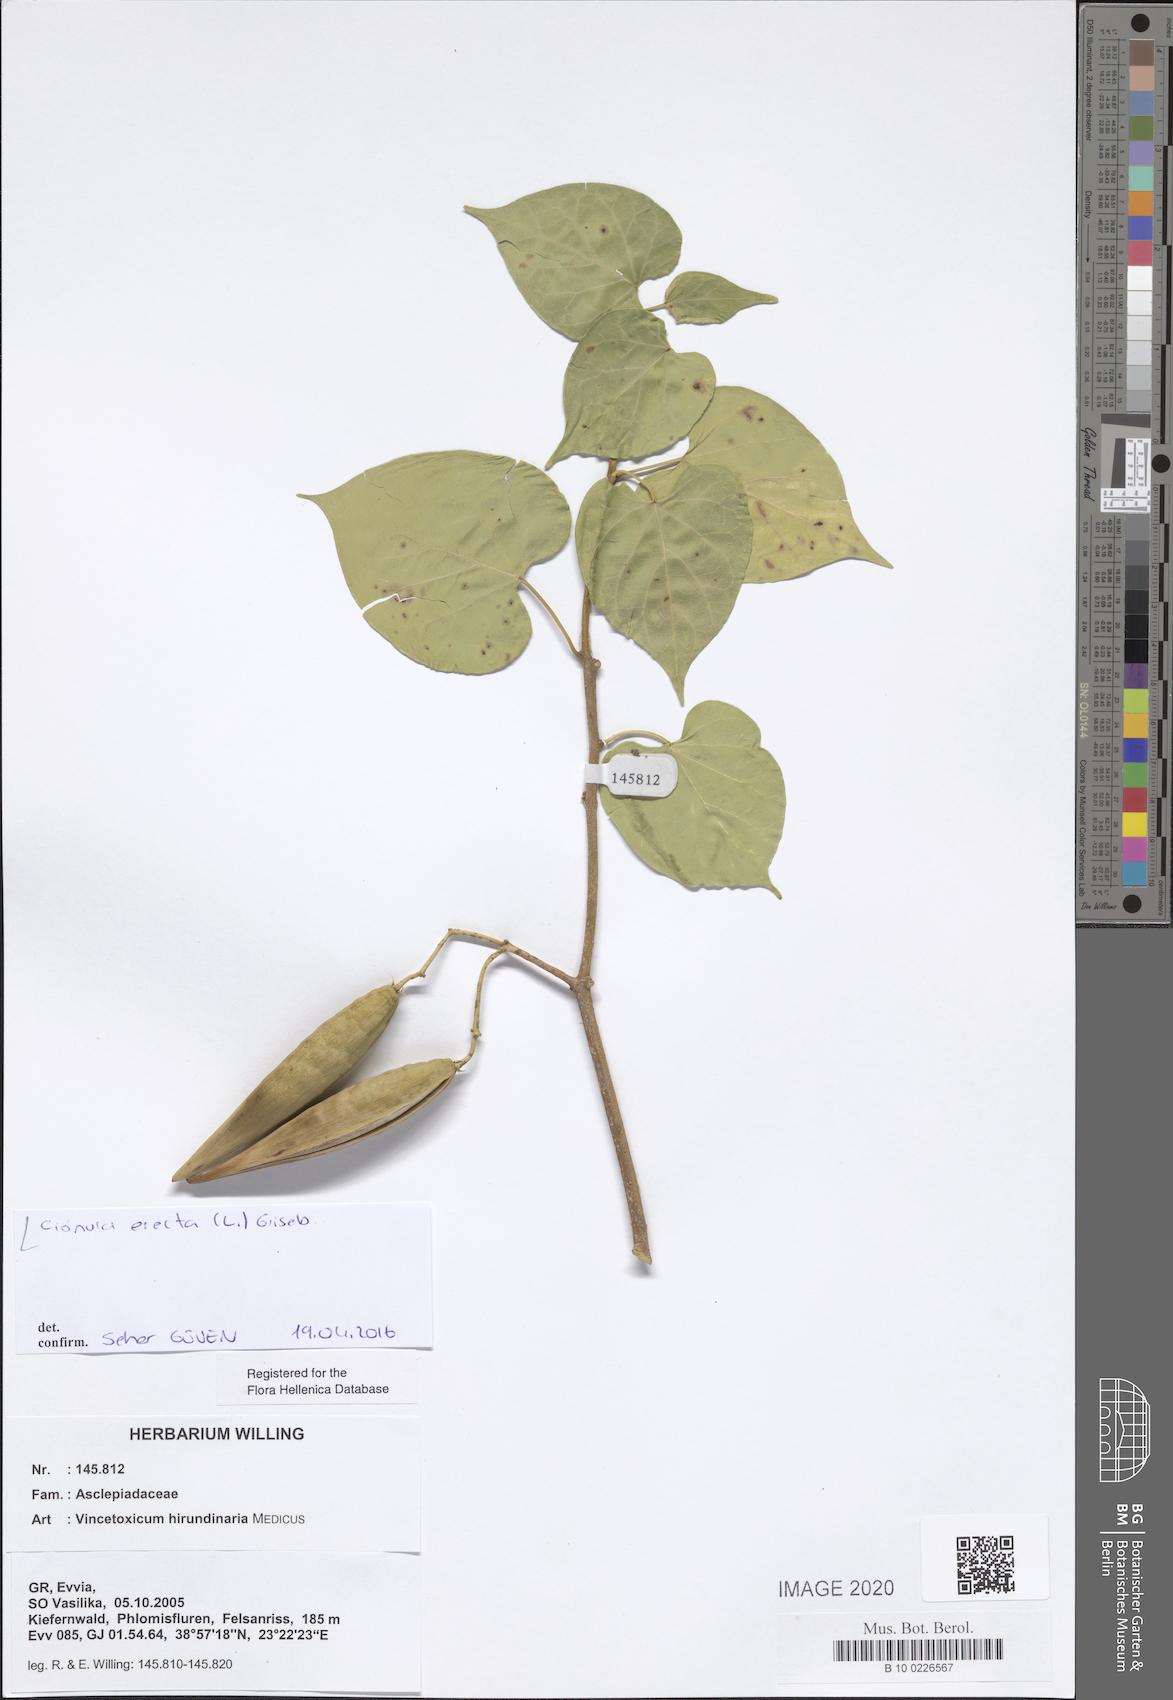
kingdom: Plantae
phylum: Tracheophyta
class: Magnoliopsida
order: Gentianales
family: Apocynaceae
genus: Cionura
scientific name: Cionura erecta
